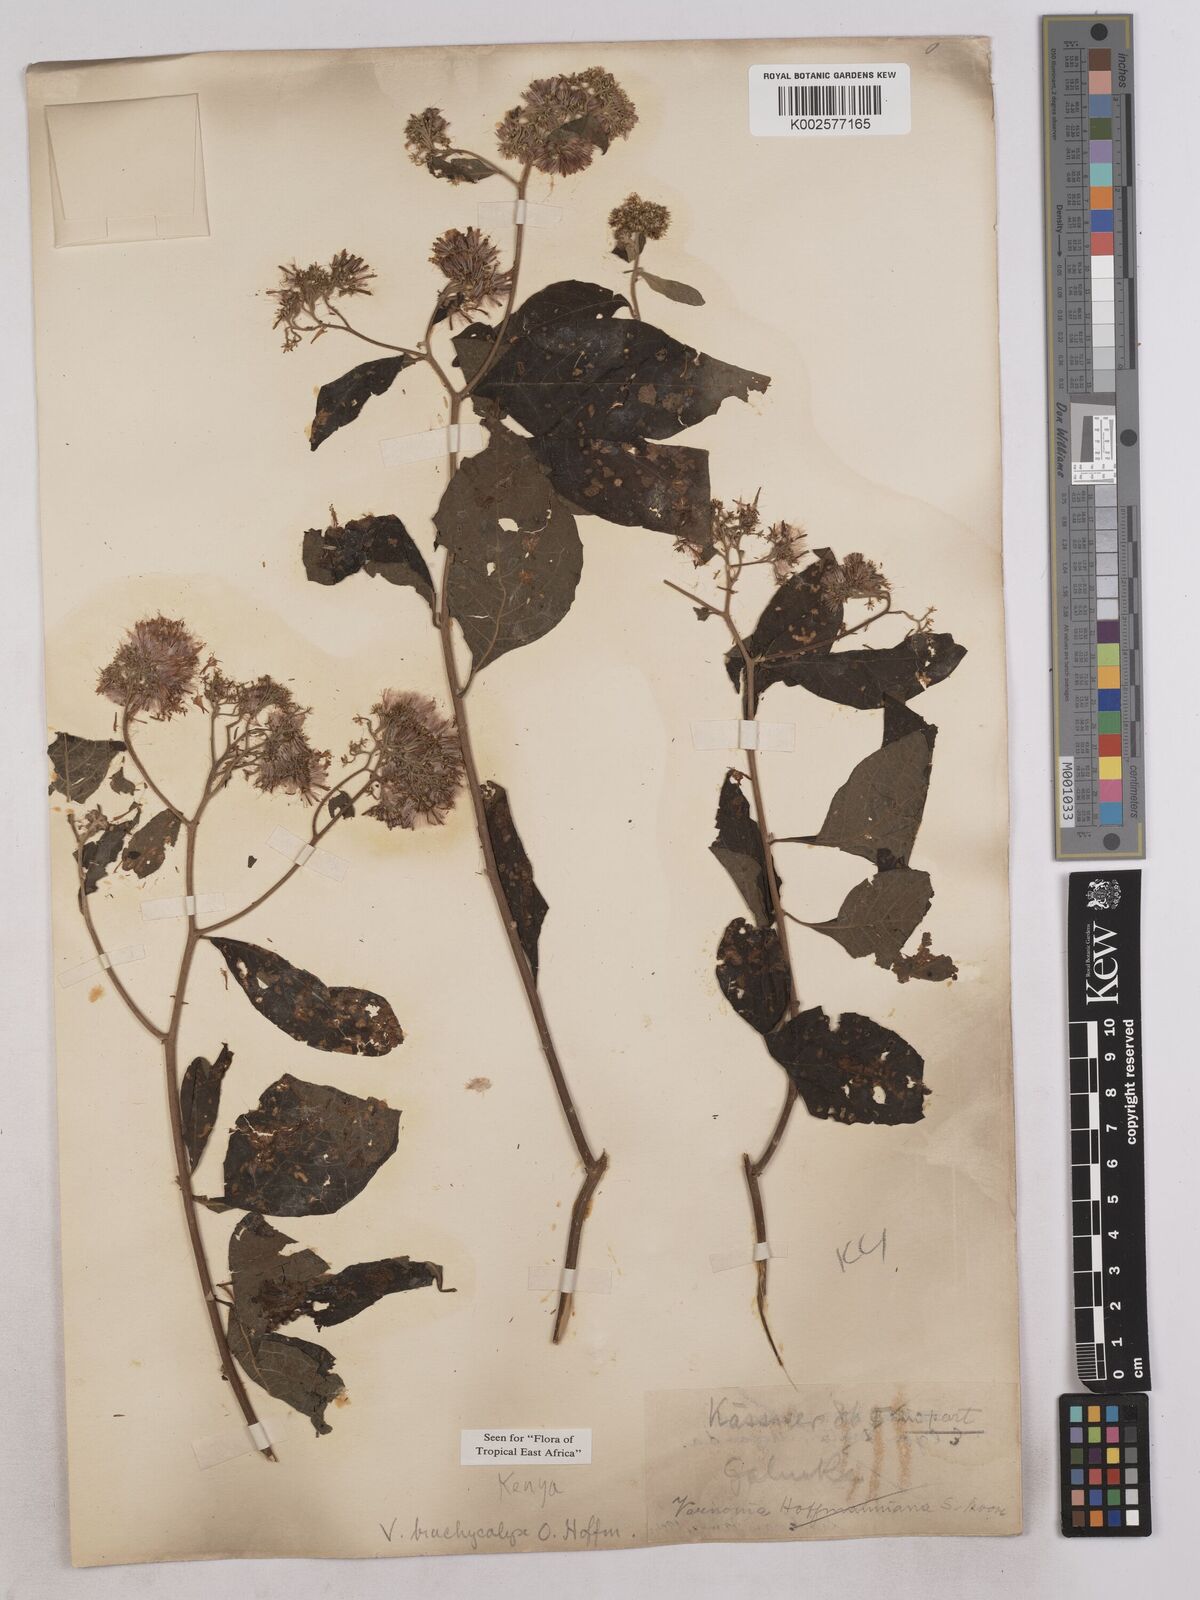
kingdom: Plantae
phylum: Tracheophyta
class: Magnoliopsida
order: Asterales
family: Asteraceae
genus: Hoffmannanthus
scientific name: Hoffmannanthus abbotianus
